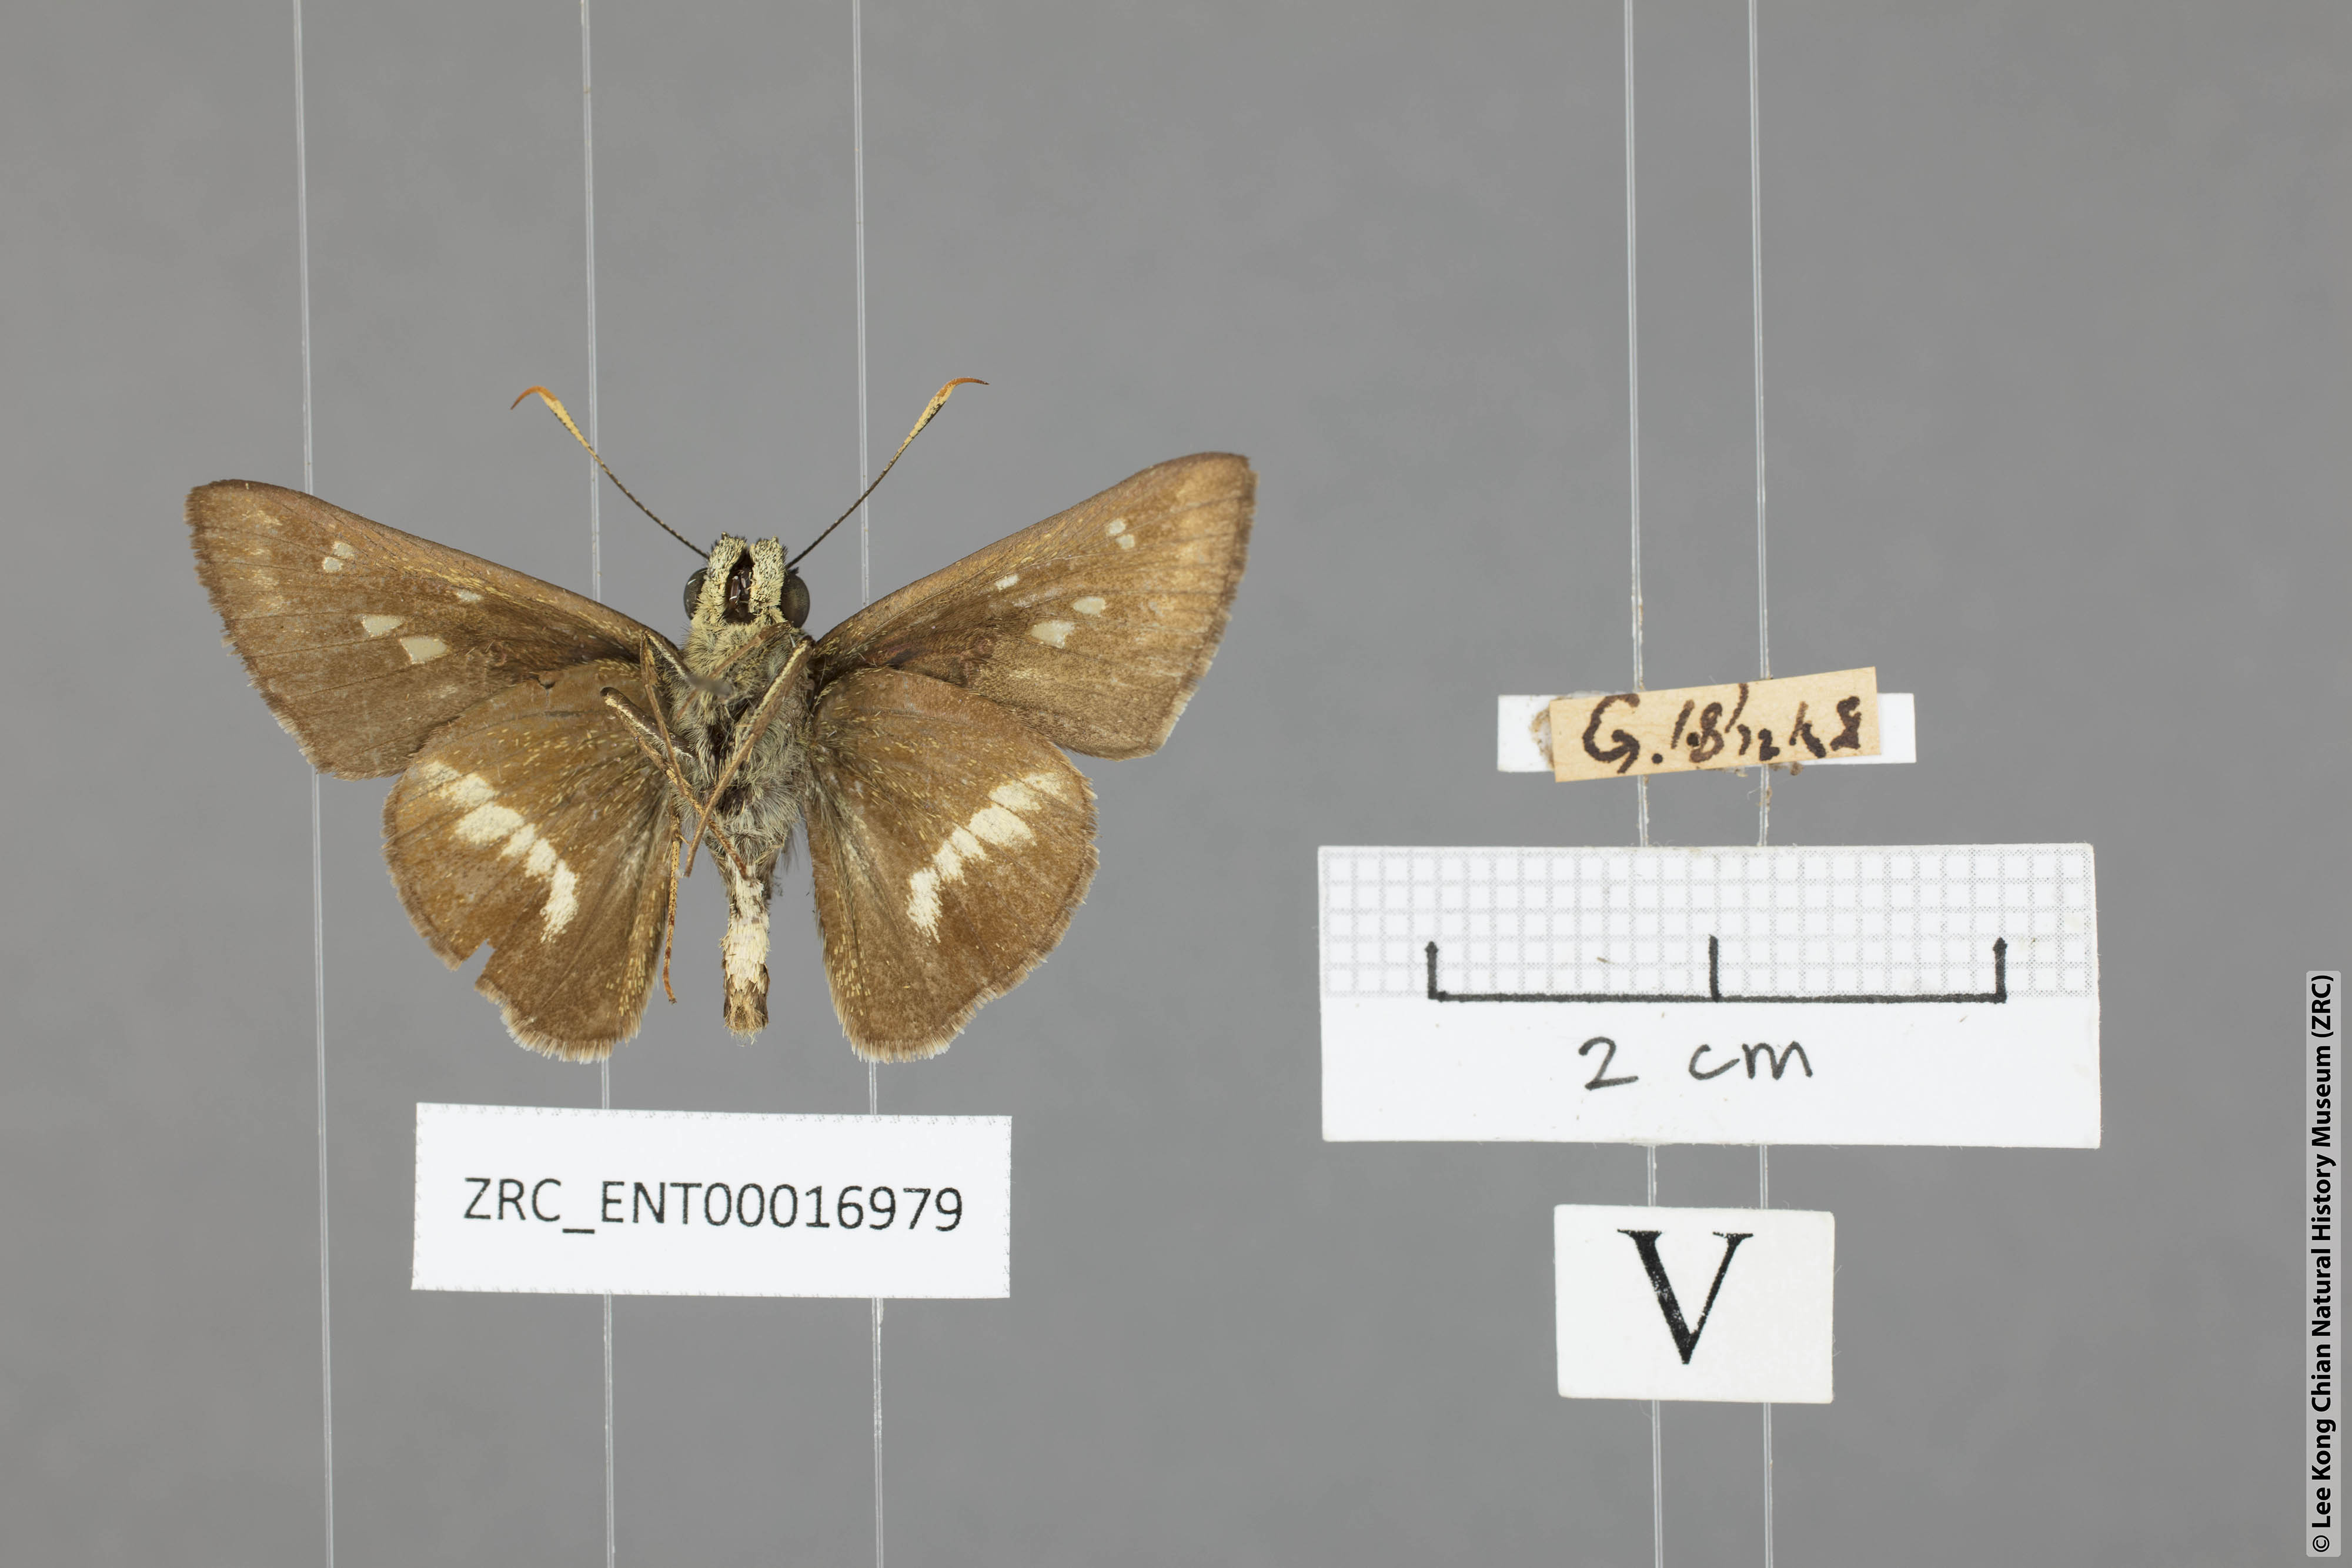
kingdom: Animalia
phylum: Arthropoda
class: Insecta
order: Lepidoptera
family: Hesperiidae
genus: Halpe
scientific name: Halpe elana
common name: Narrow-banded ace
